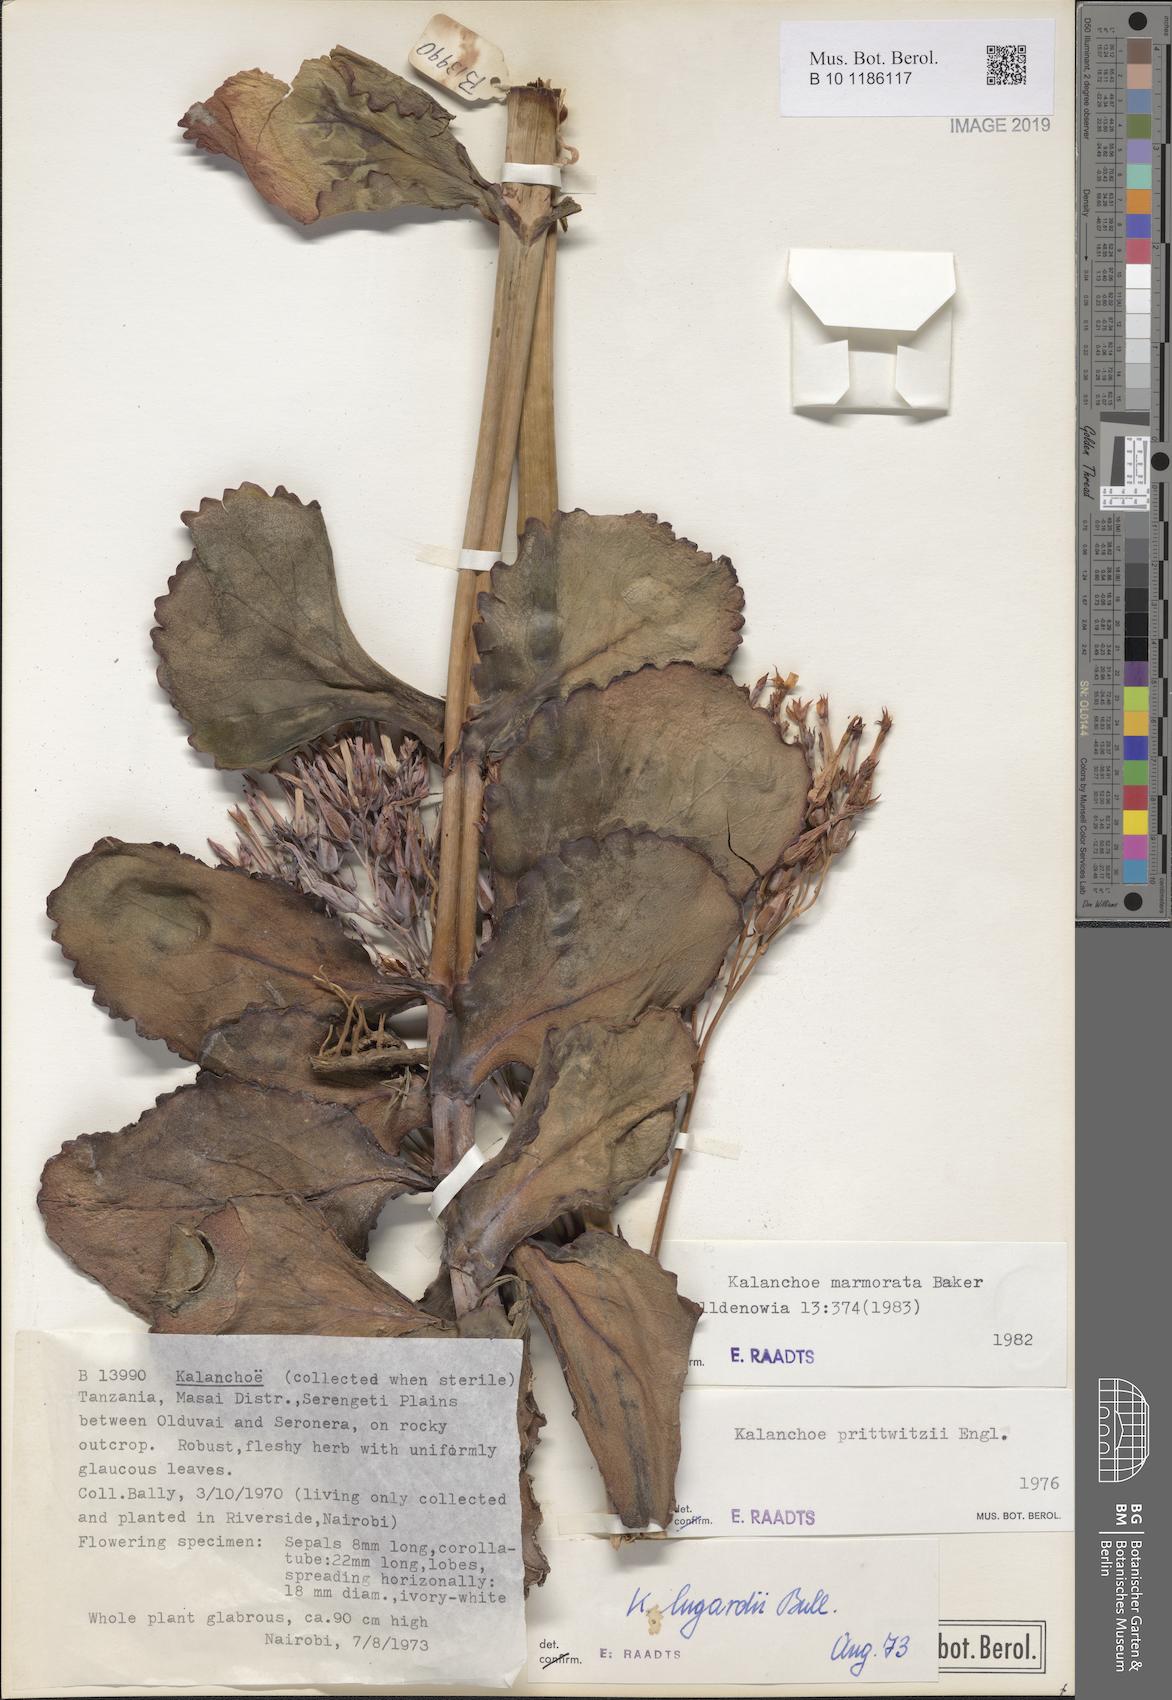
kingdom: Plantae
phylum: Tracheophyta
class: Magnoliopsida
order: Saxifragales
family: Crassulaceae
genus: Kalanchoe
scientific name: Kalanchoe marmorata
